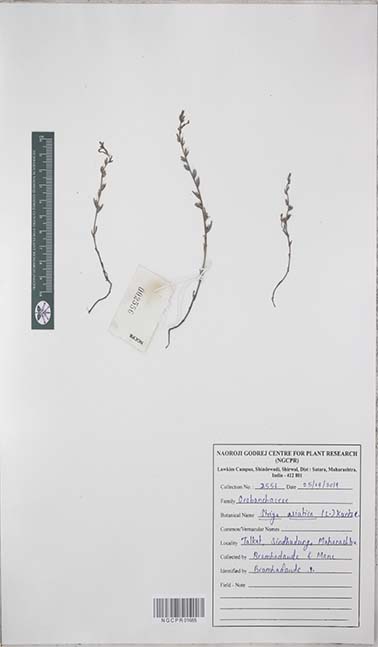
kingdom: Plantae
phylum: Tracheophyta
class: Magnoliopsida
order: Lamiales
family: Orobanchaceae
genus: Striga
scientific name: Striga asiatica
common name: Asiatic witchweed
